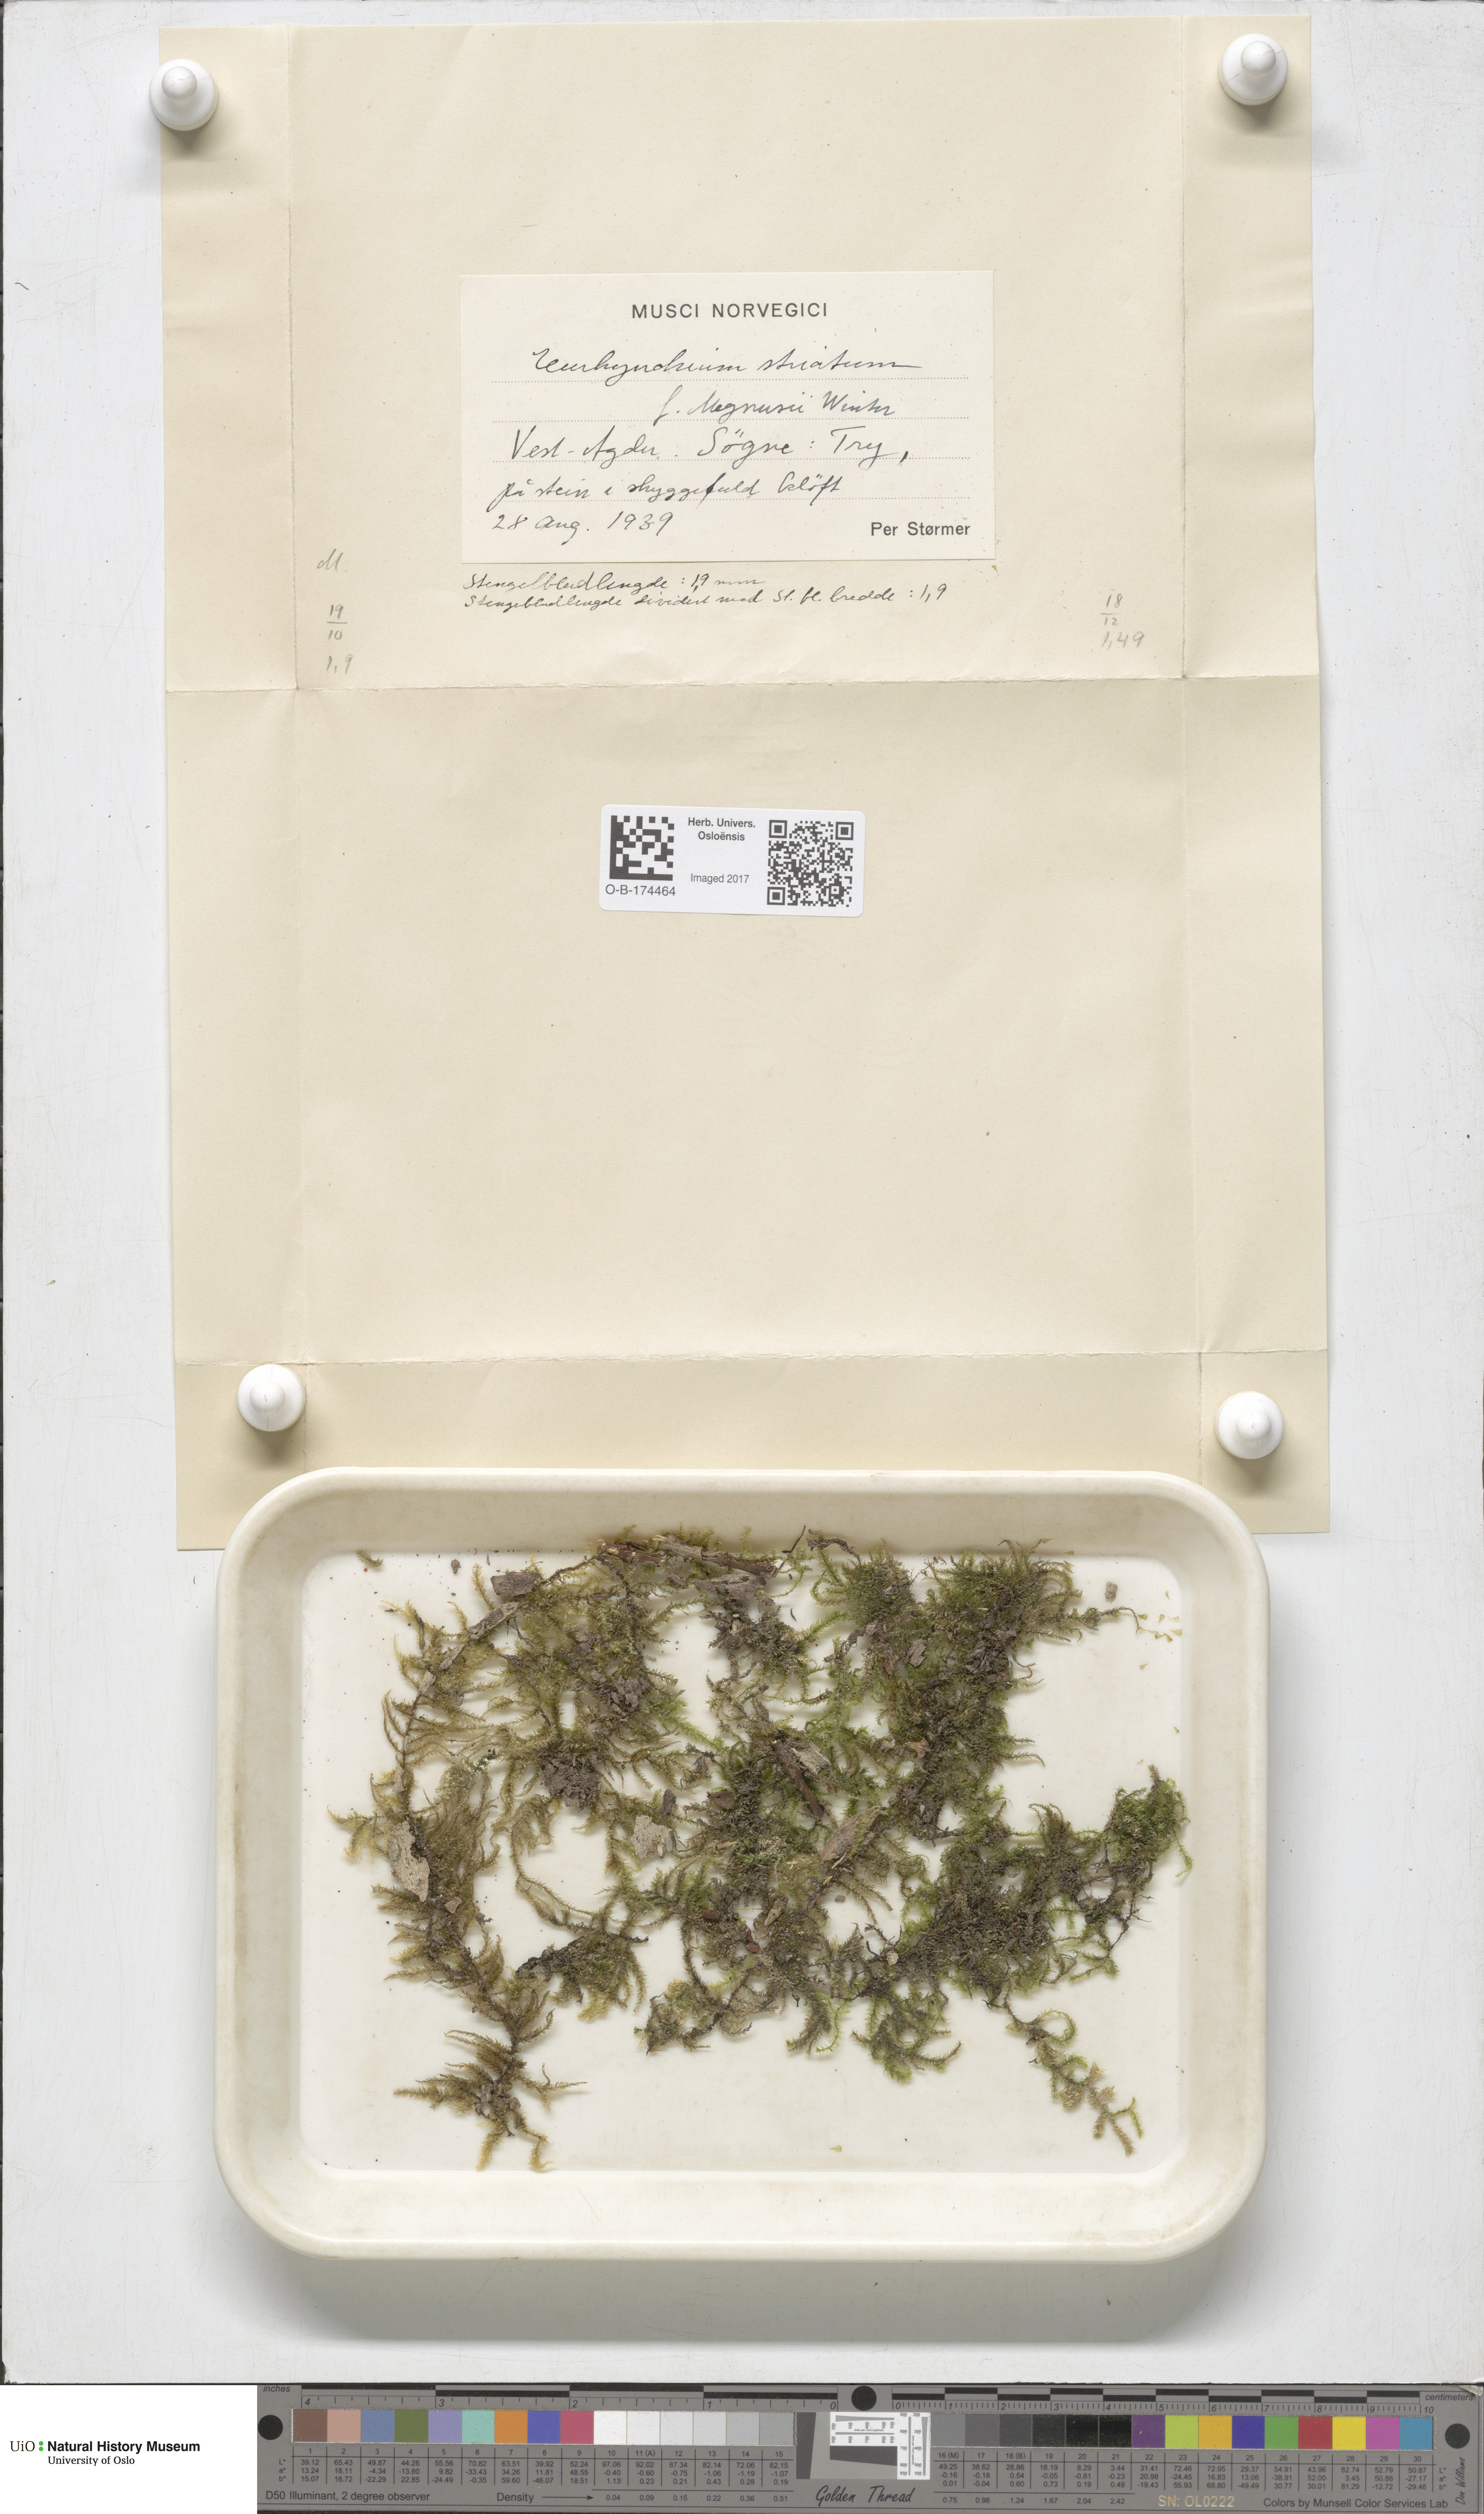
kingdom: Plantae
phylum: Bryophyta
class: Bryopsida
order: Hypnales
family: Brachytheciaceae
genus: Eurhynchium
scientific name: Eurhynchium striatum
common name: Common striated feather-moss
